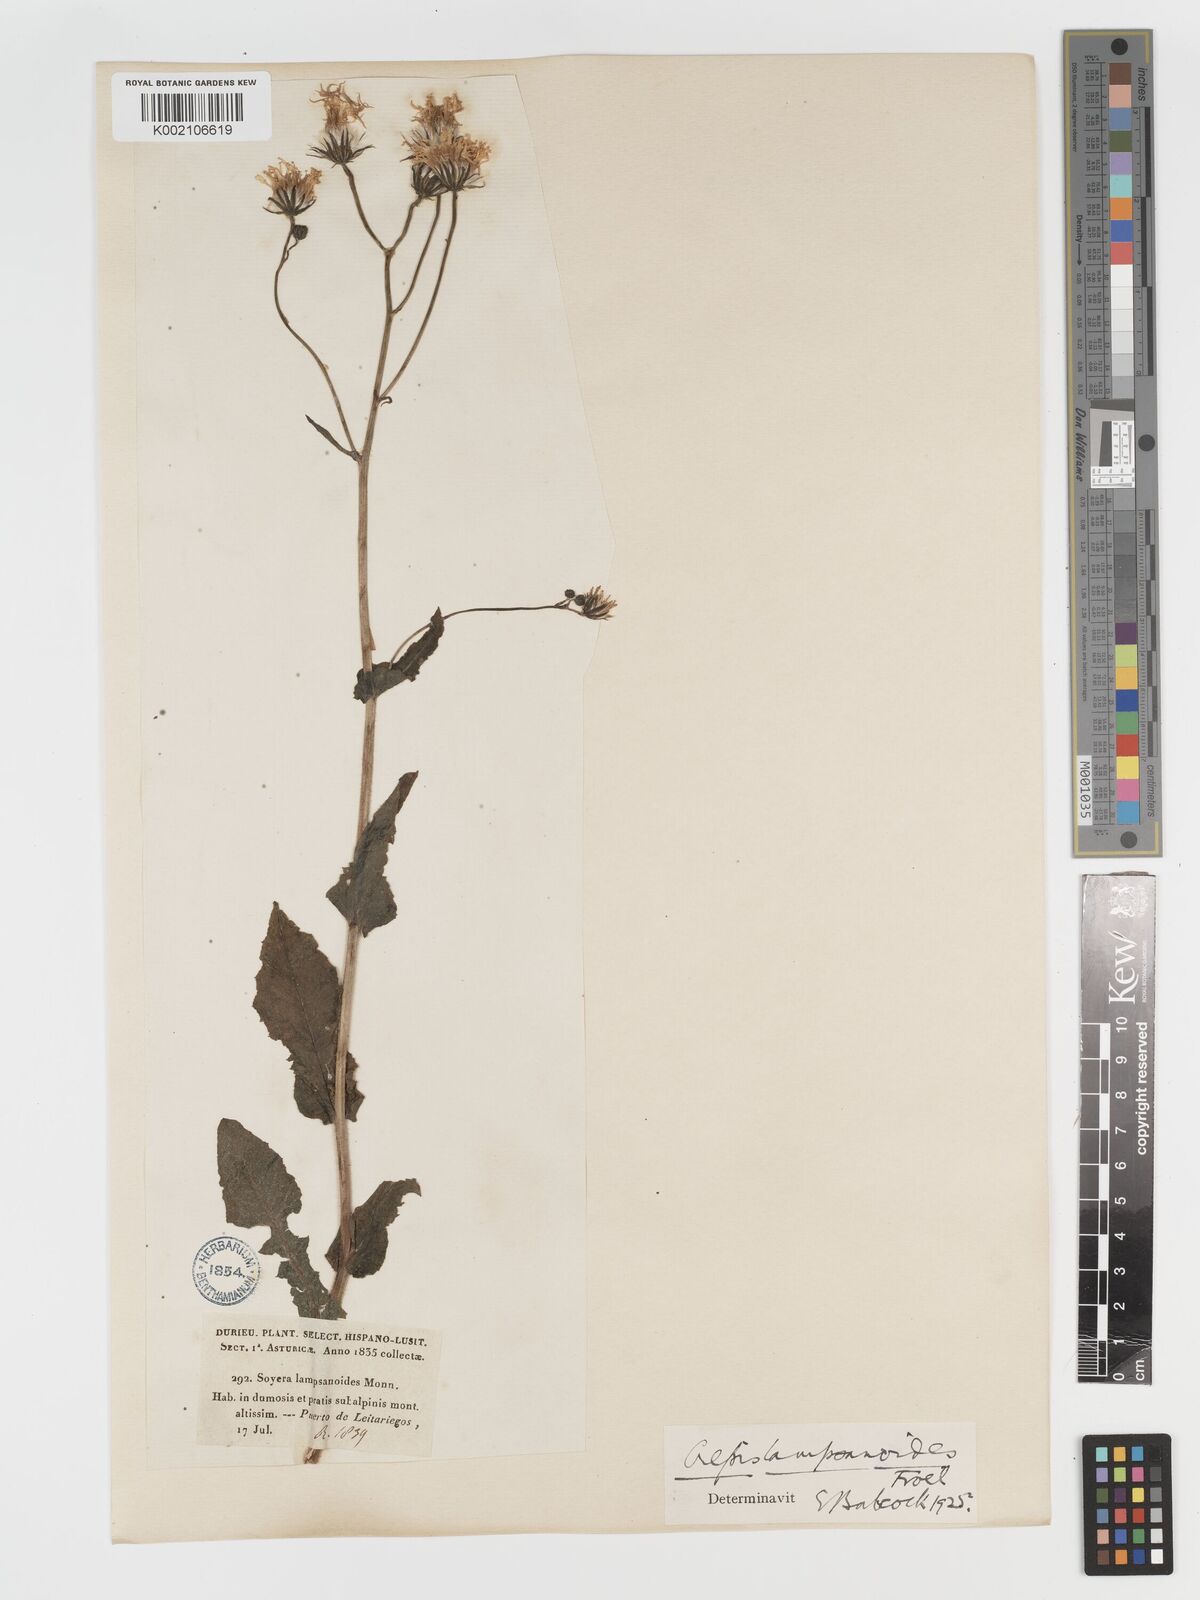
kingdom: Plantae
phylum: Tracheophyta
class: Magnoliopsida
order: Asterales
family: Asteraceae
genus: Crepis
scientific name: Crepis lampsanoides
